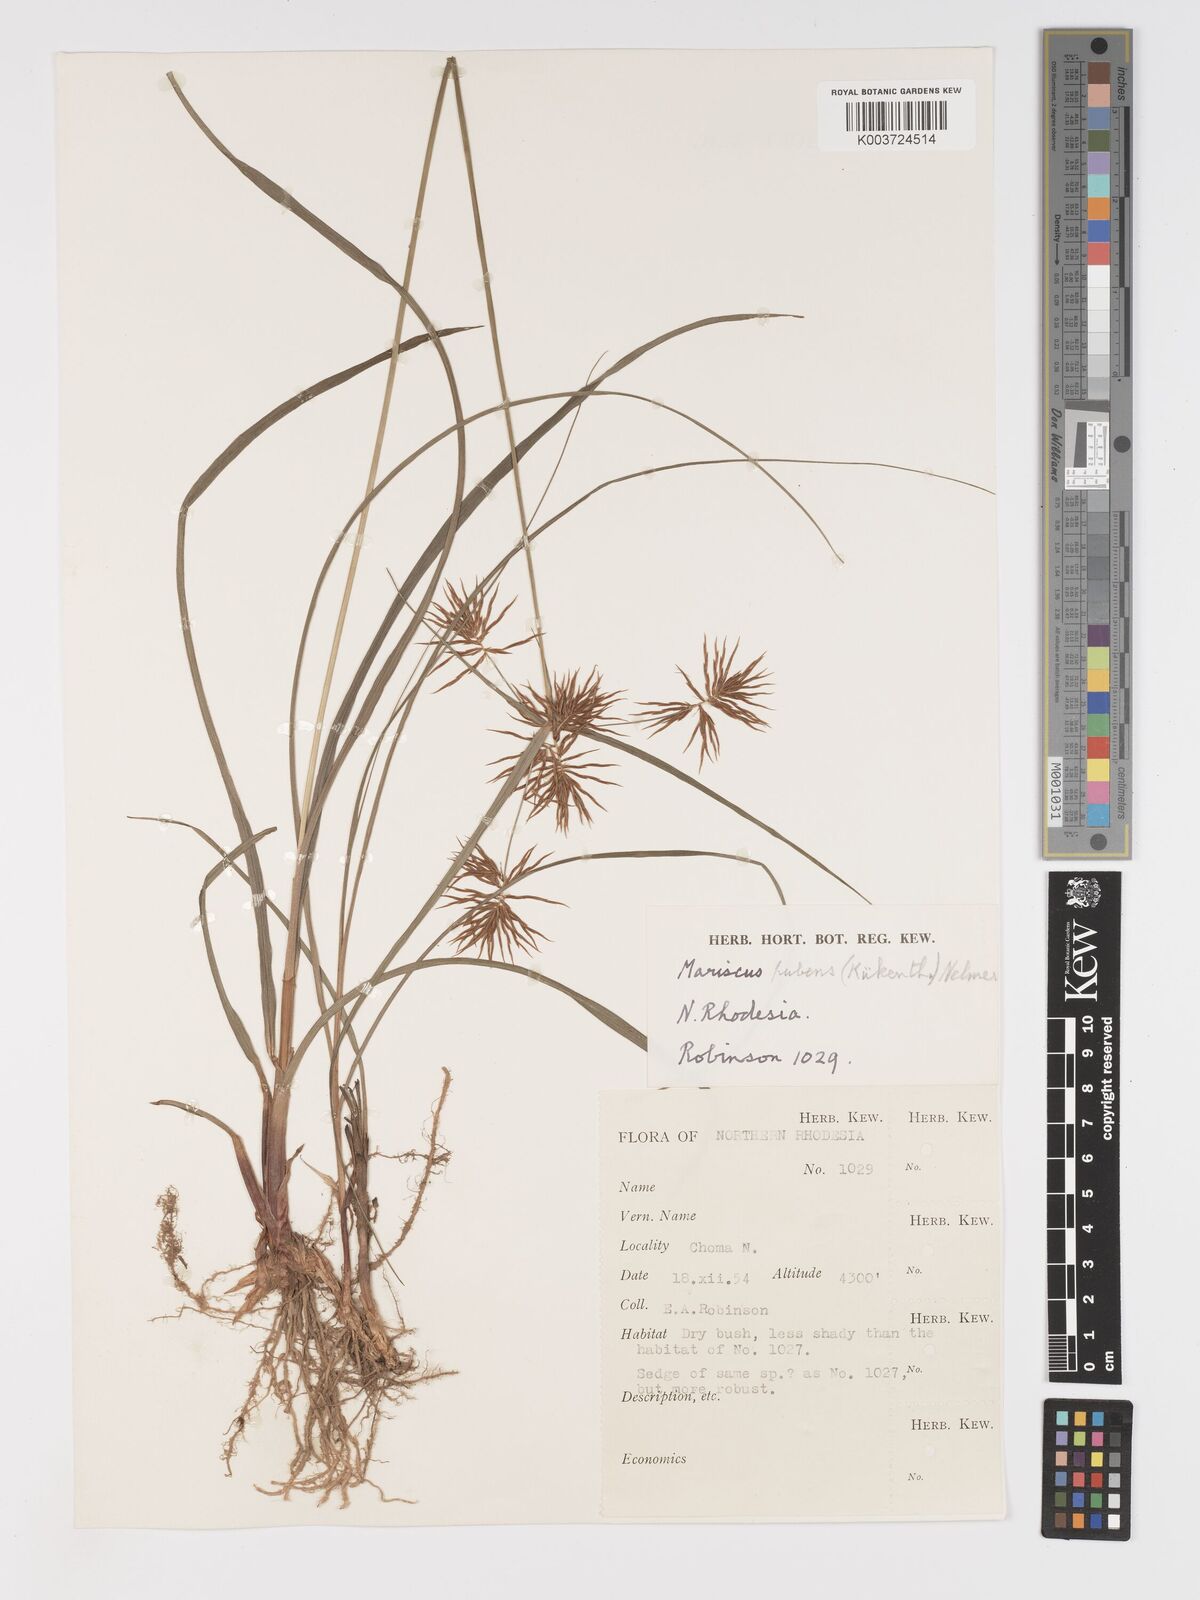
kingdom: Plantae
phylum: Tracheophyta
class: Liliopsida
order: Poales
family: Cyperaceae
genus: Cyperus
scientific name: Cyperus pubens
